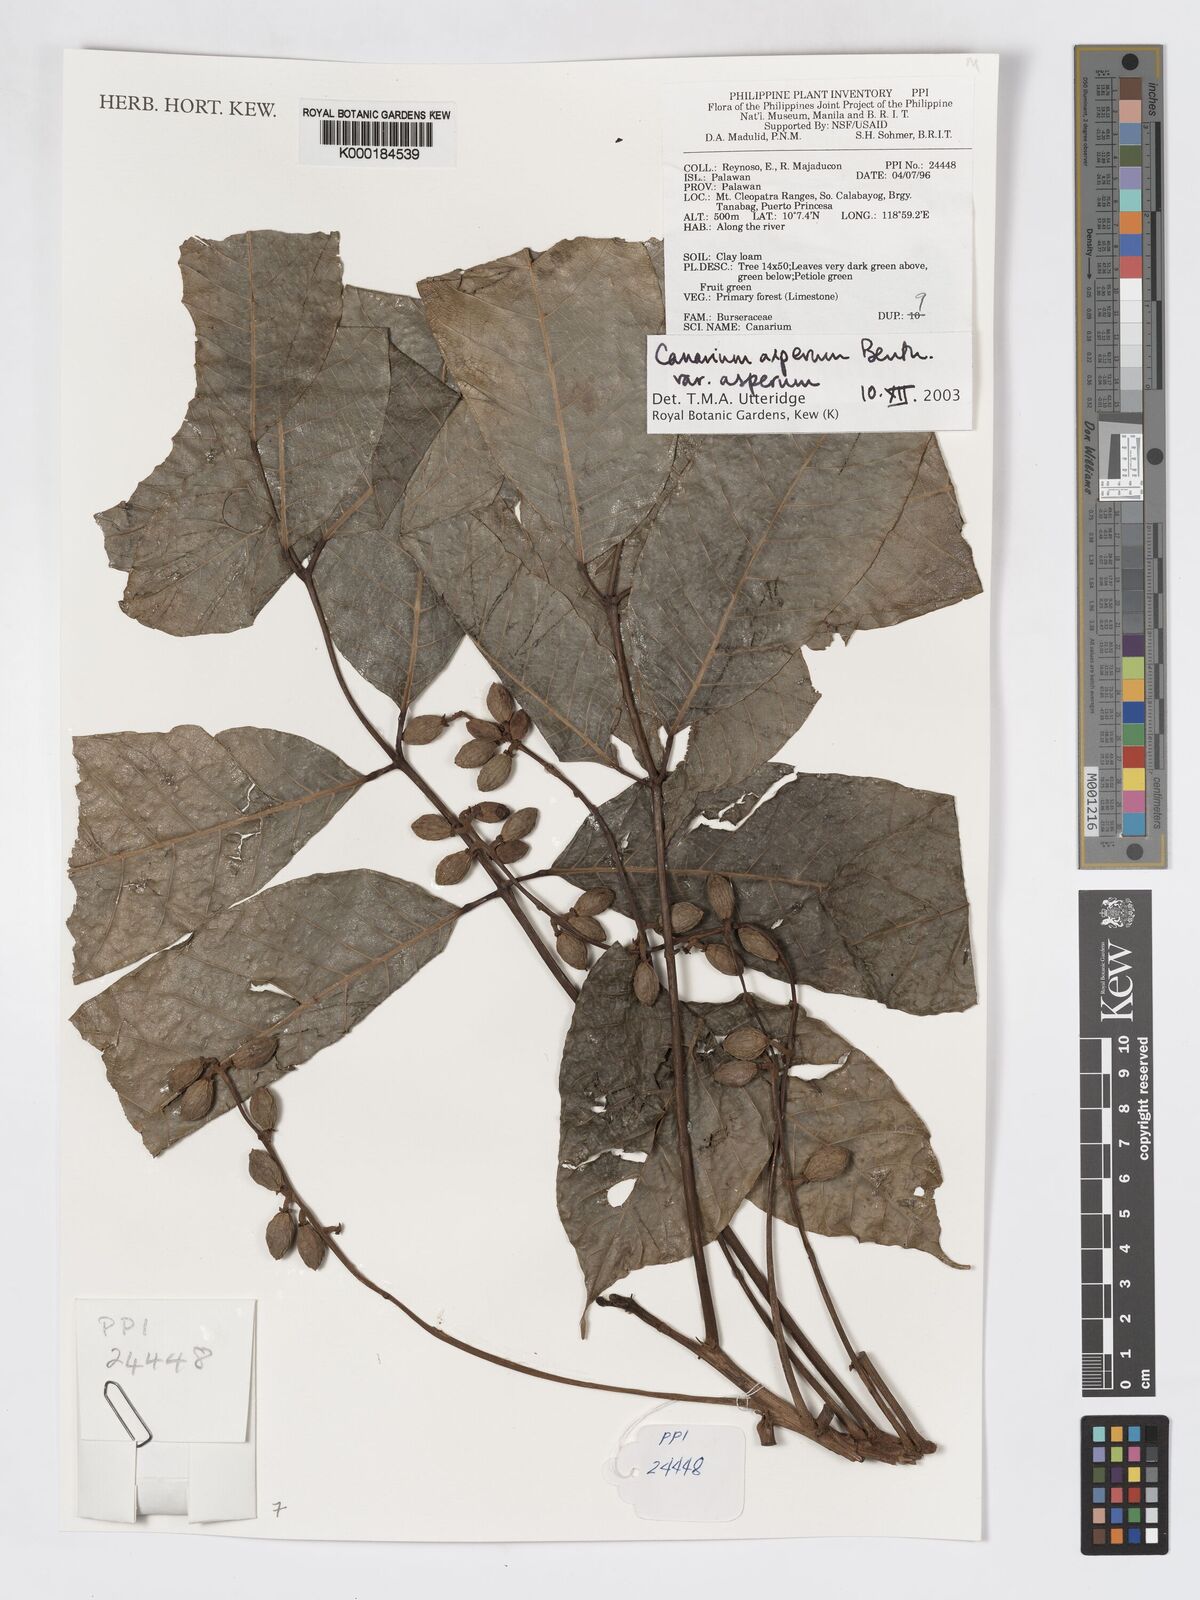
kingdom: Plantae
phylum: Tracheophyta
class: Magnoliopsida
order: Sapindales
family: Burseraceae
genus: Canarium
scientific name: Canarium asperum
